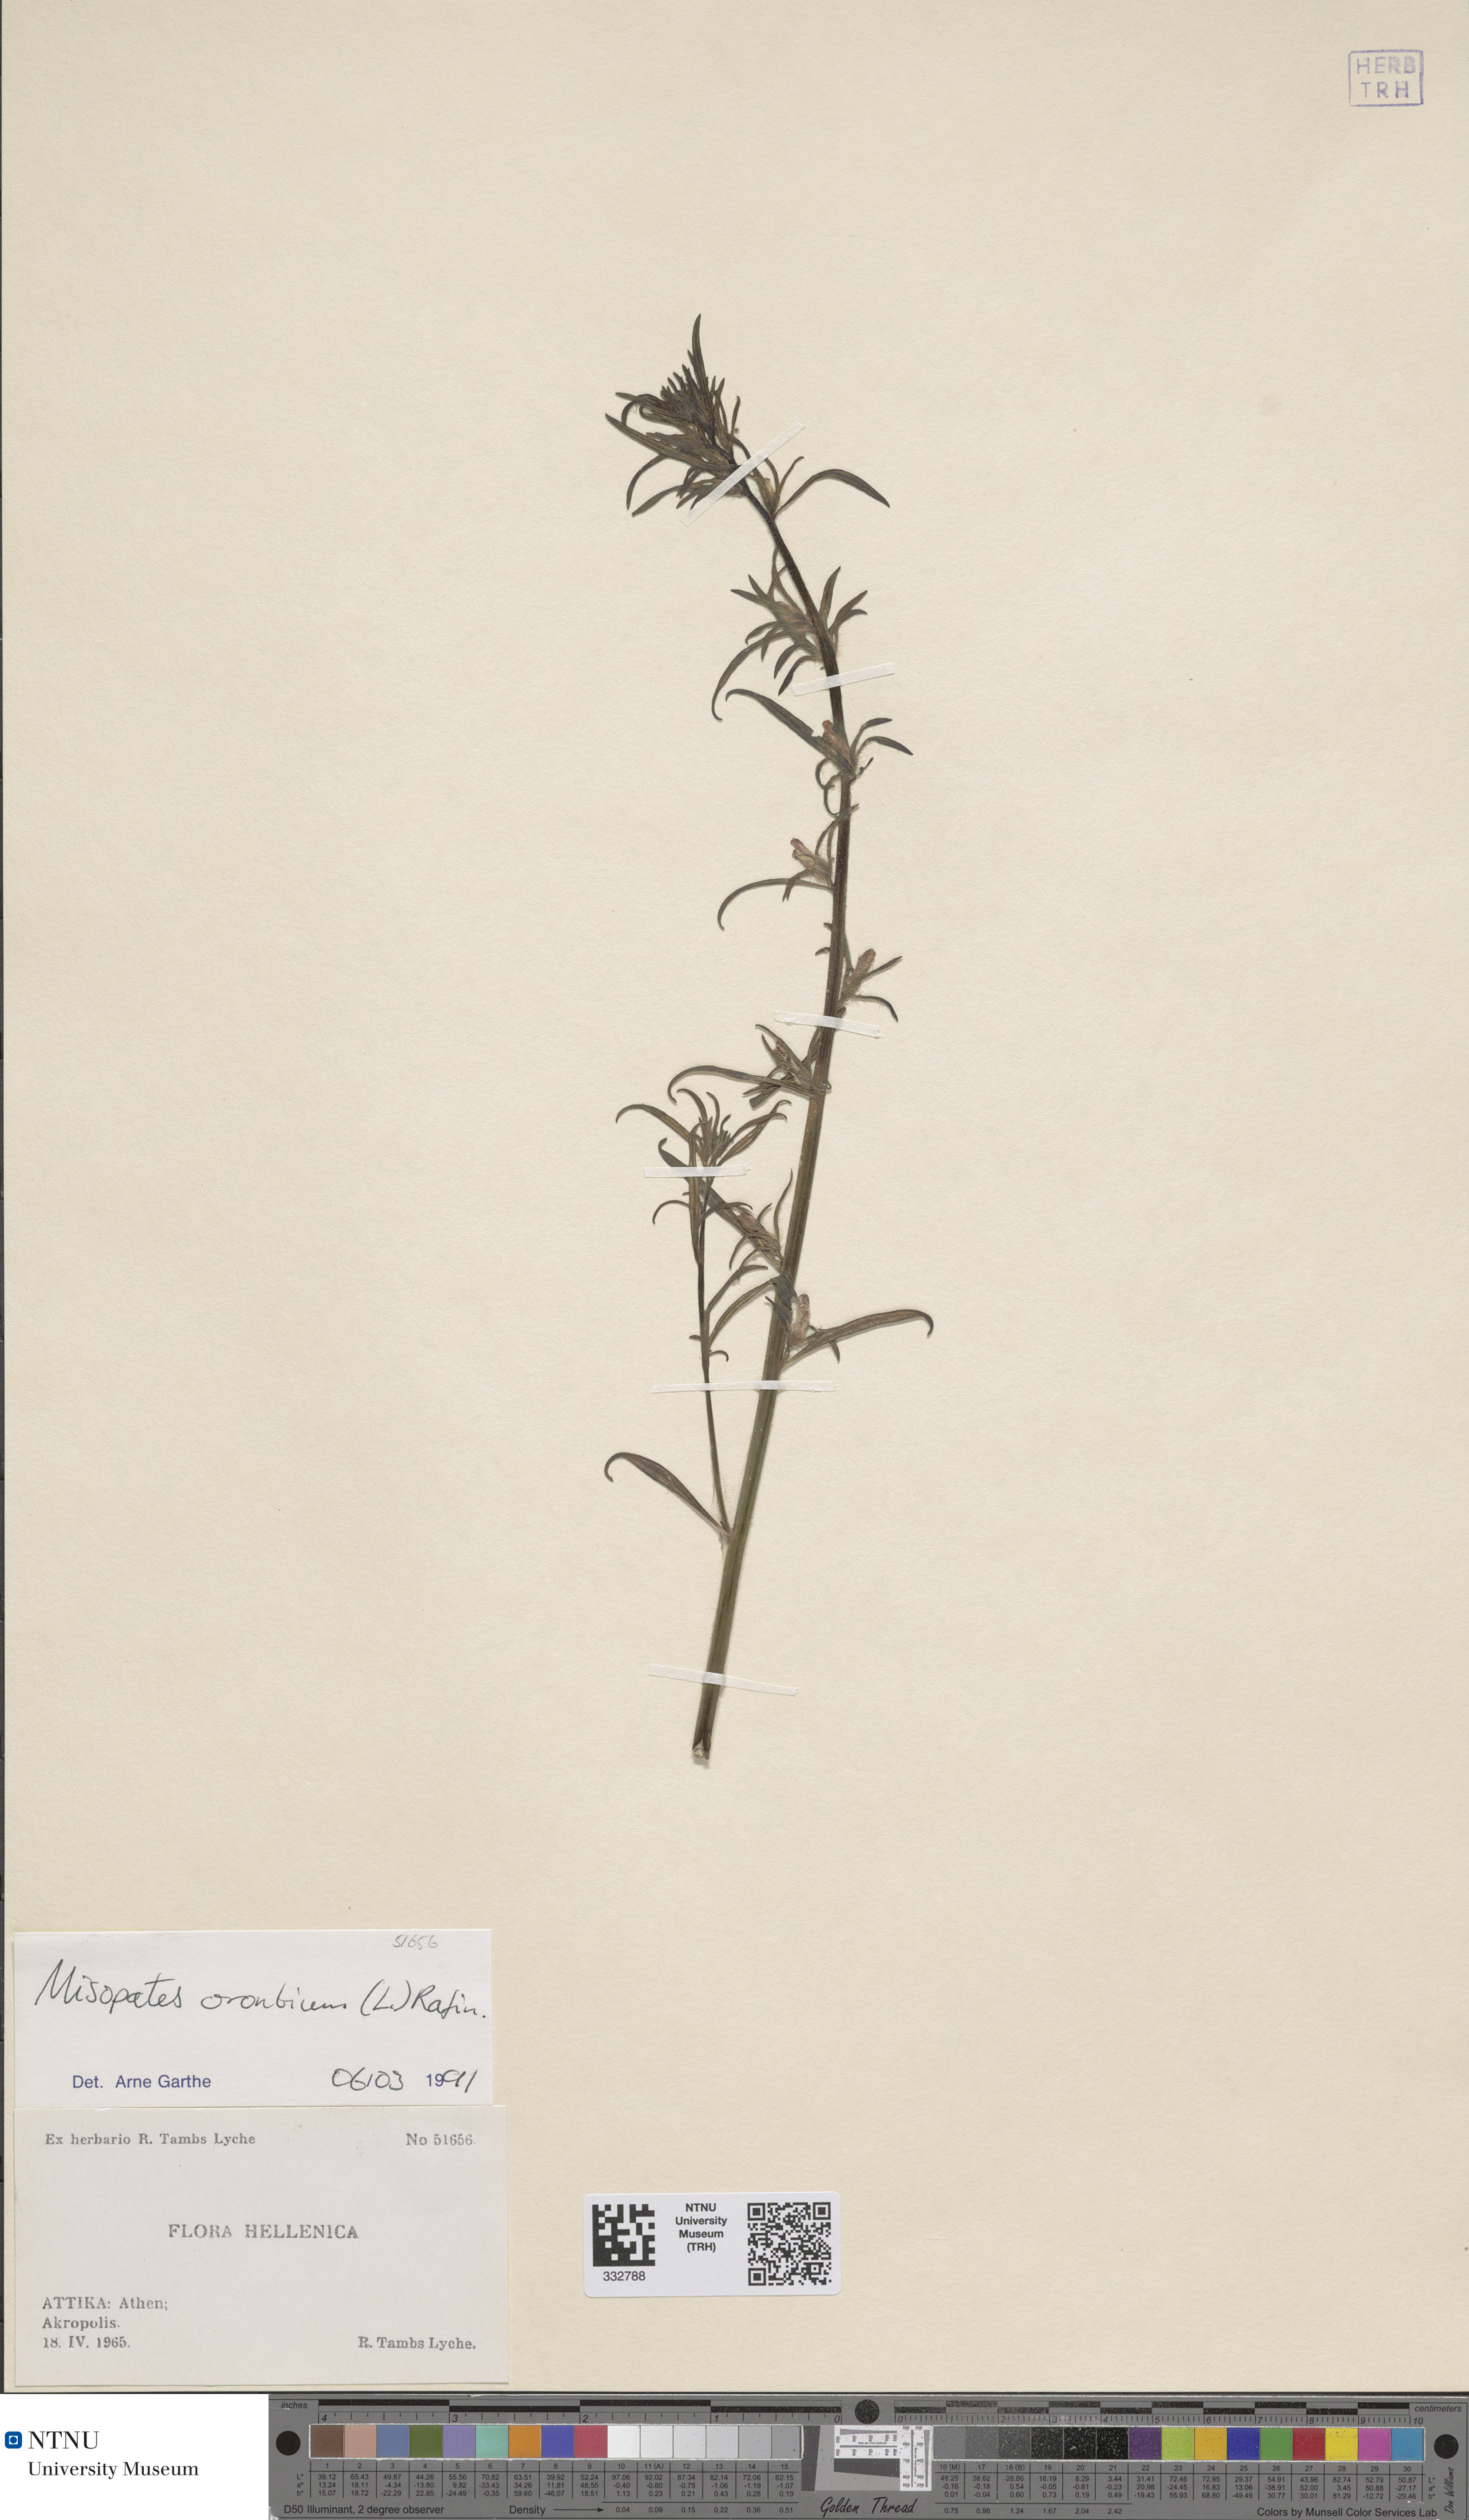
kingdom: Plantae
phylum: Tracheophyta
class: Magnoliopsida
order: Lamiales
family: Plantaginaceae
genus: Misopates
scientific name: Misopates orontium
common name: Weasel's-snout
